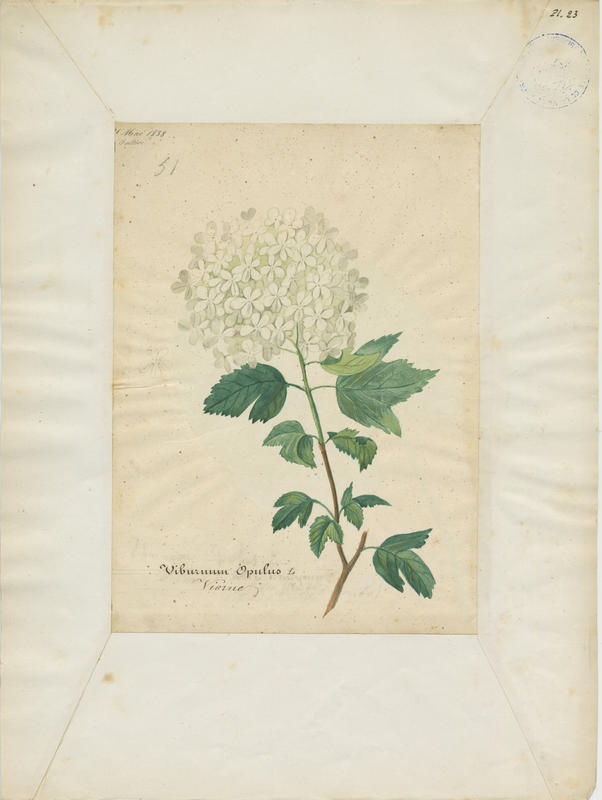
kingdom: Plantae
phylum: Tracheophyta
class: Magnoliopsida
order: Dipsacales
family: Viburnaceae
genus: Viburnum
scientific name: Viburnum opulus
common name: Guelder-rose
